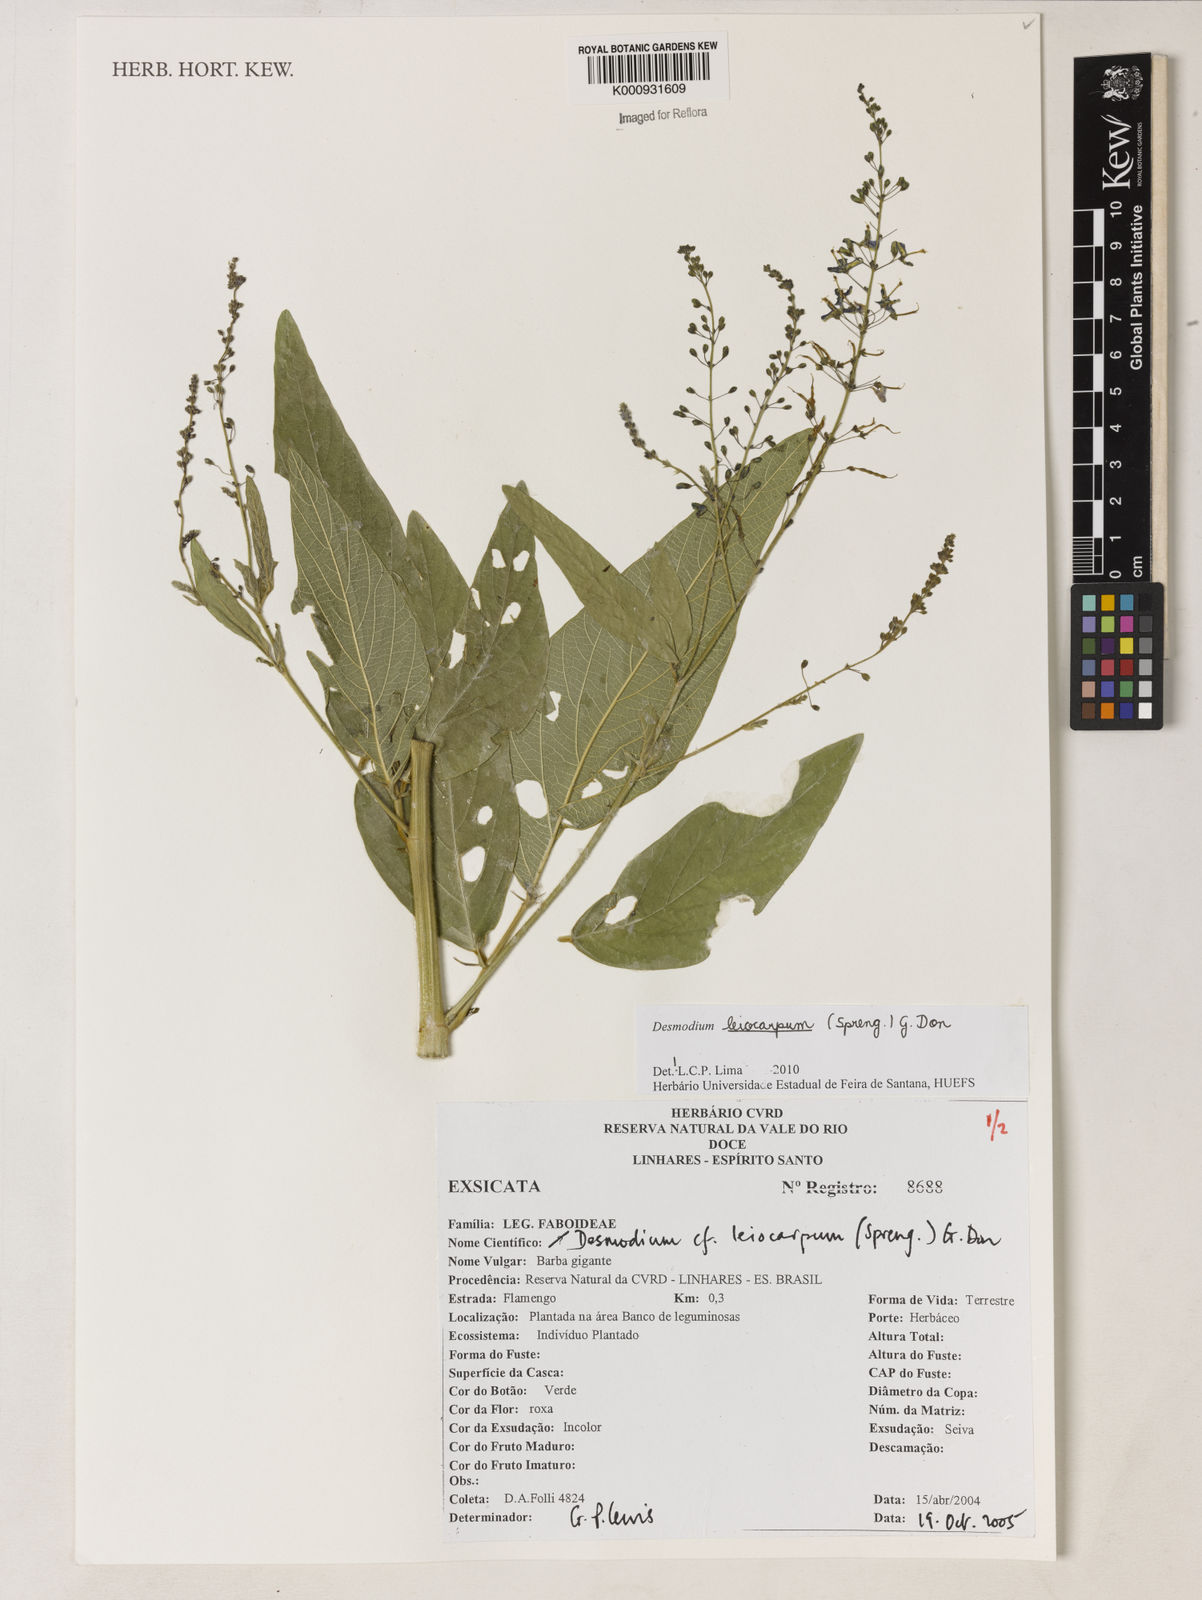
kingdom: Plantae
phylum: Tracheophyta
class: Magnoliopsida
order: Fabales
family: Fabaceae
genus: Desmodium
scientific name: Desmodium leiocarpum
